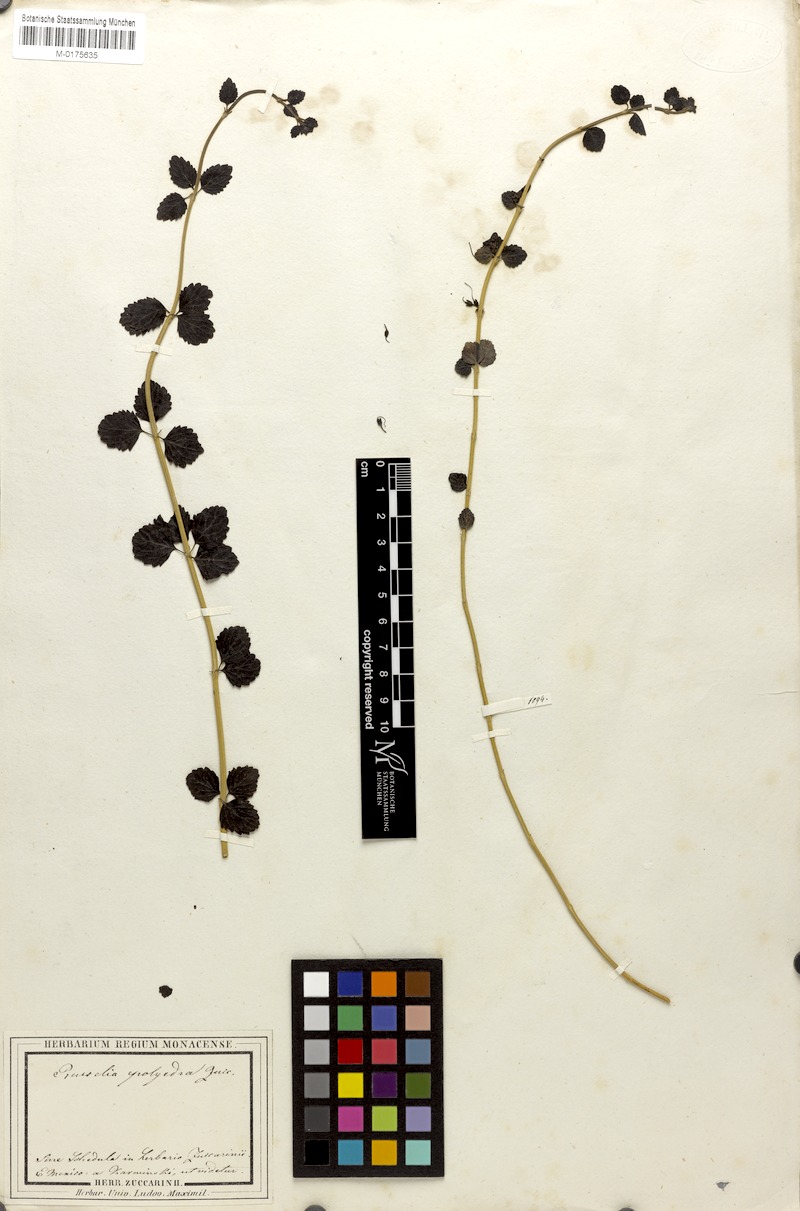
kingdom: Plantae
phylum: Tracheophyta
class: Magnoliopsida
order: Lamiales
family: Plantaginaceae
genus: Russelia
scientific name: Russelia polyedra
